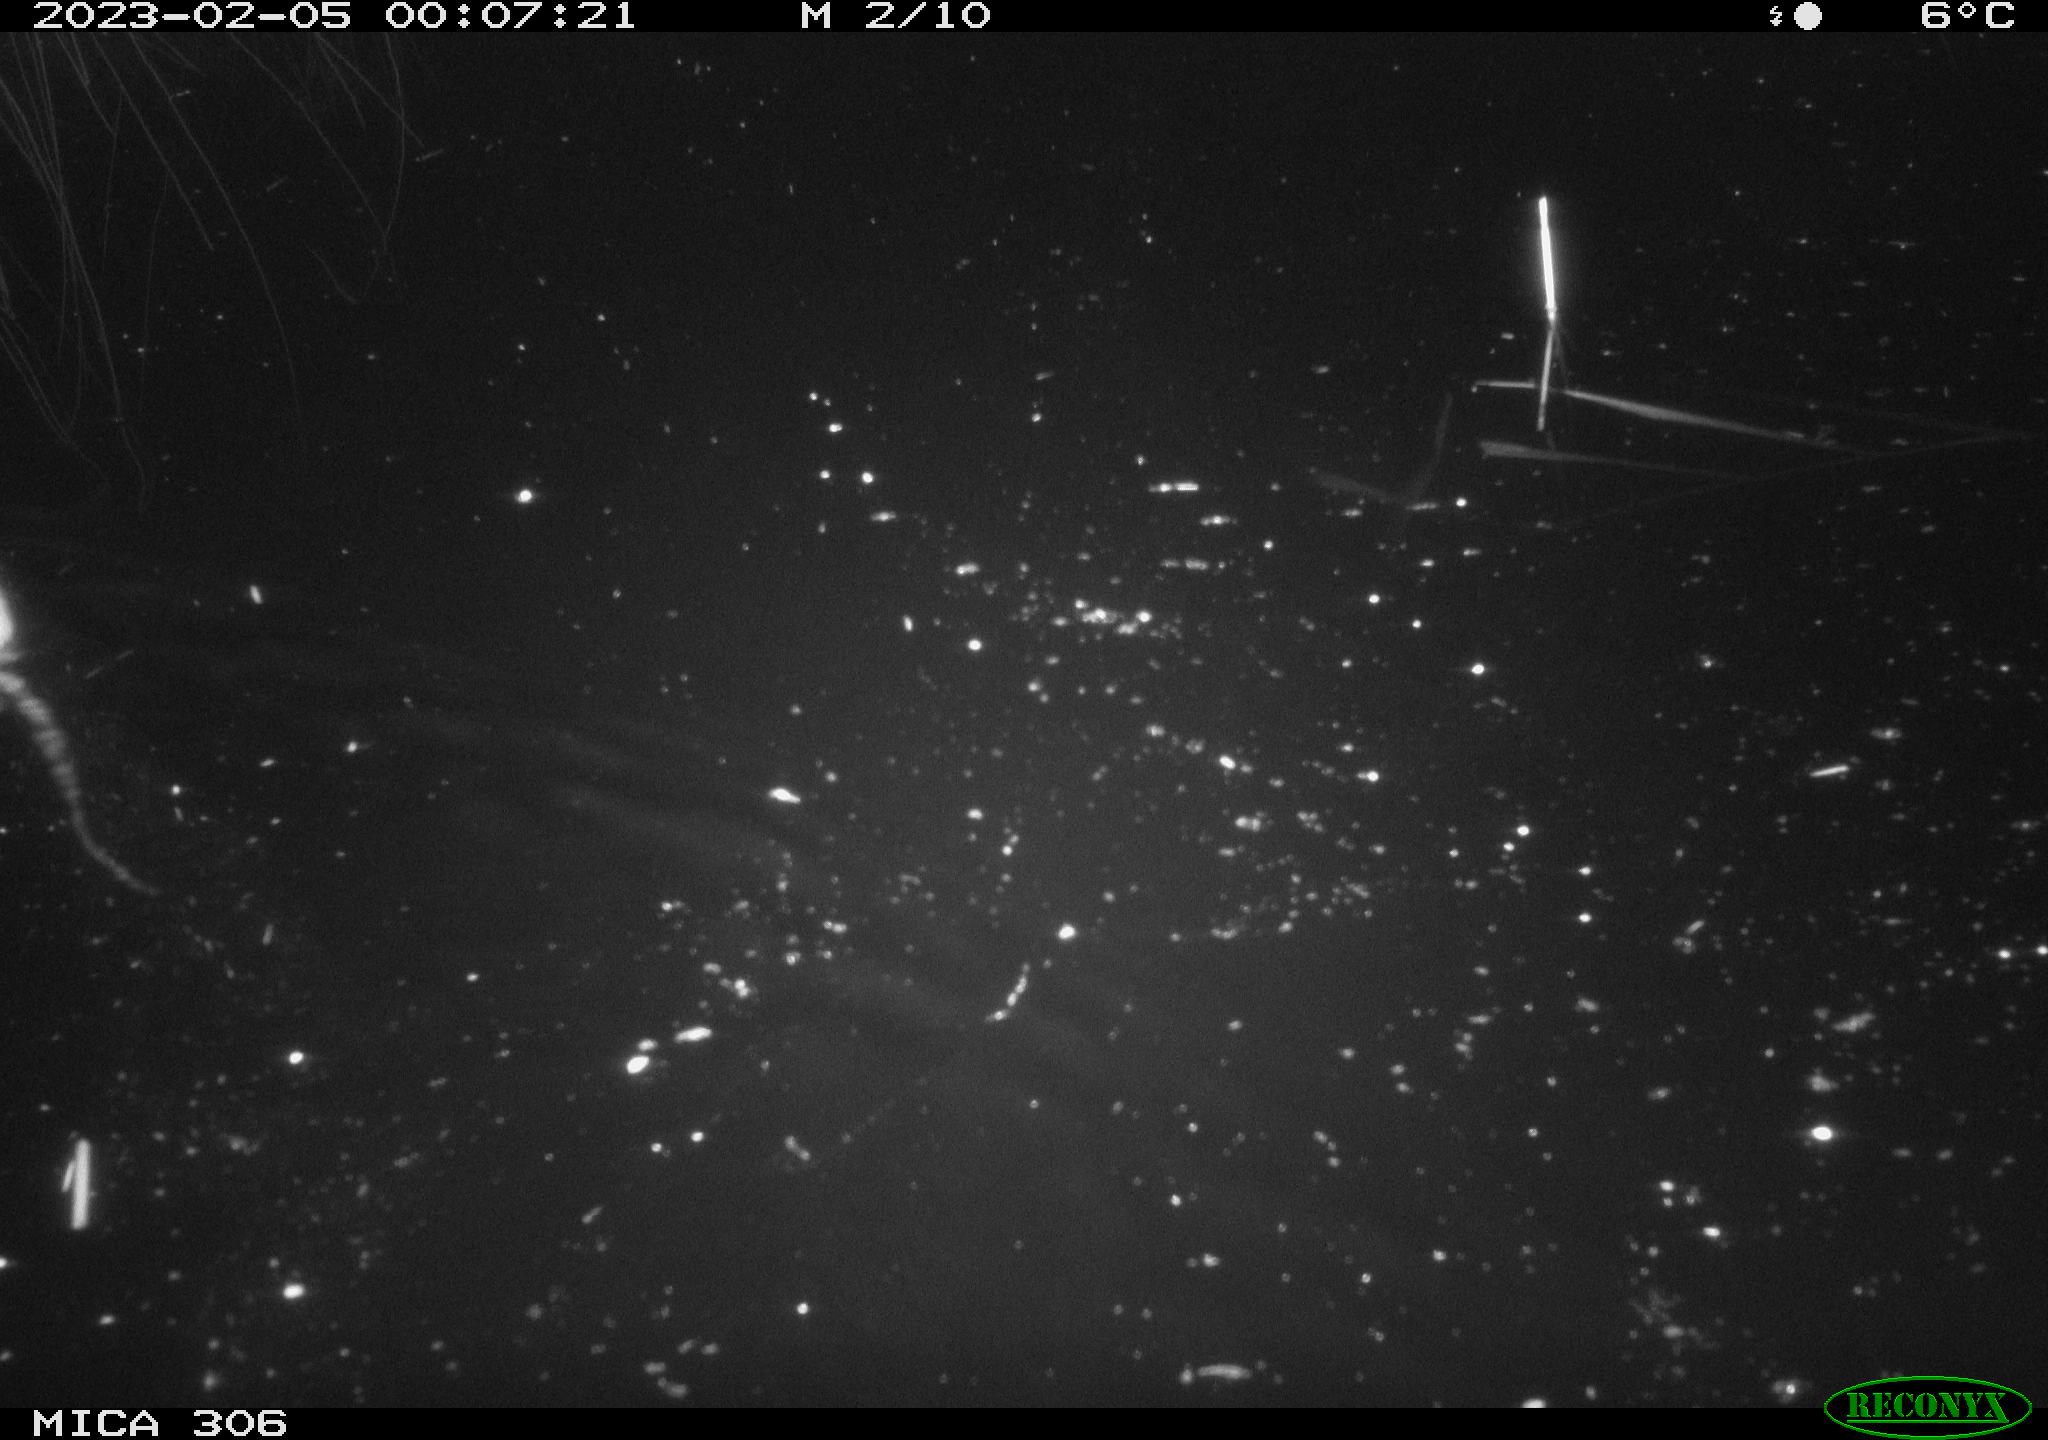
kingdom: Animalia
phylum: Chordata
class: Mammalia
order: Rodentia
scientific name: Rodentia
